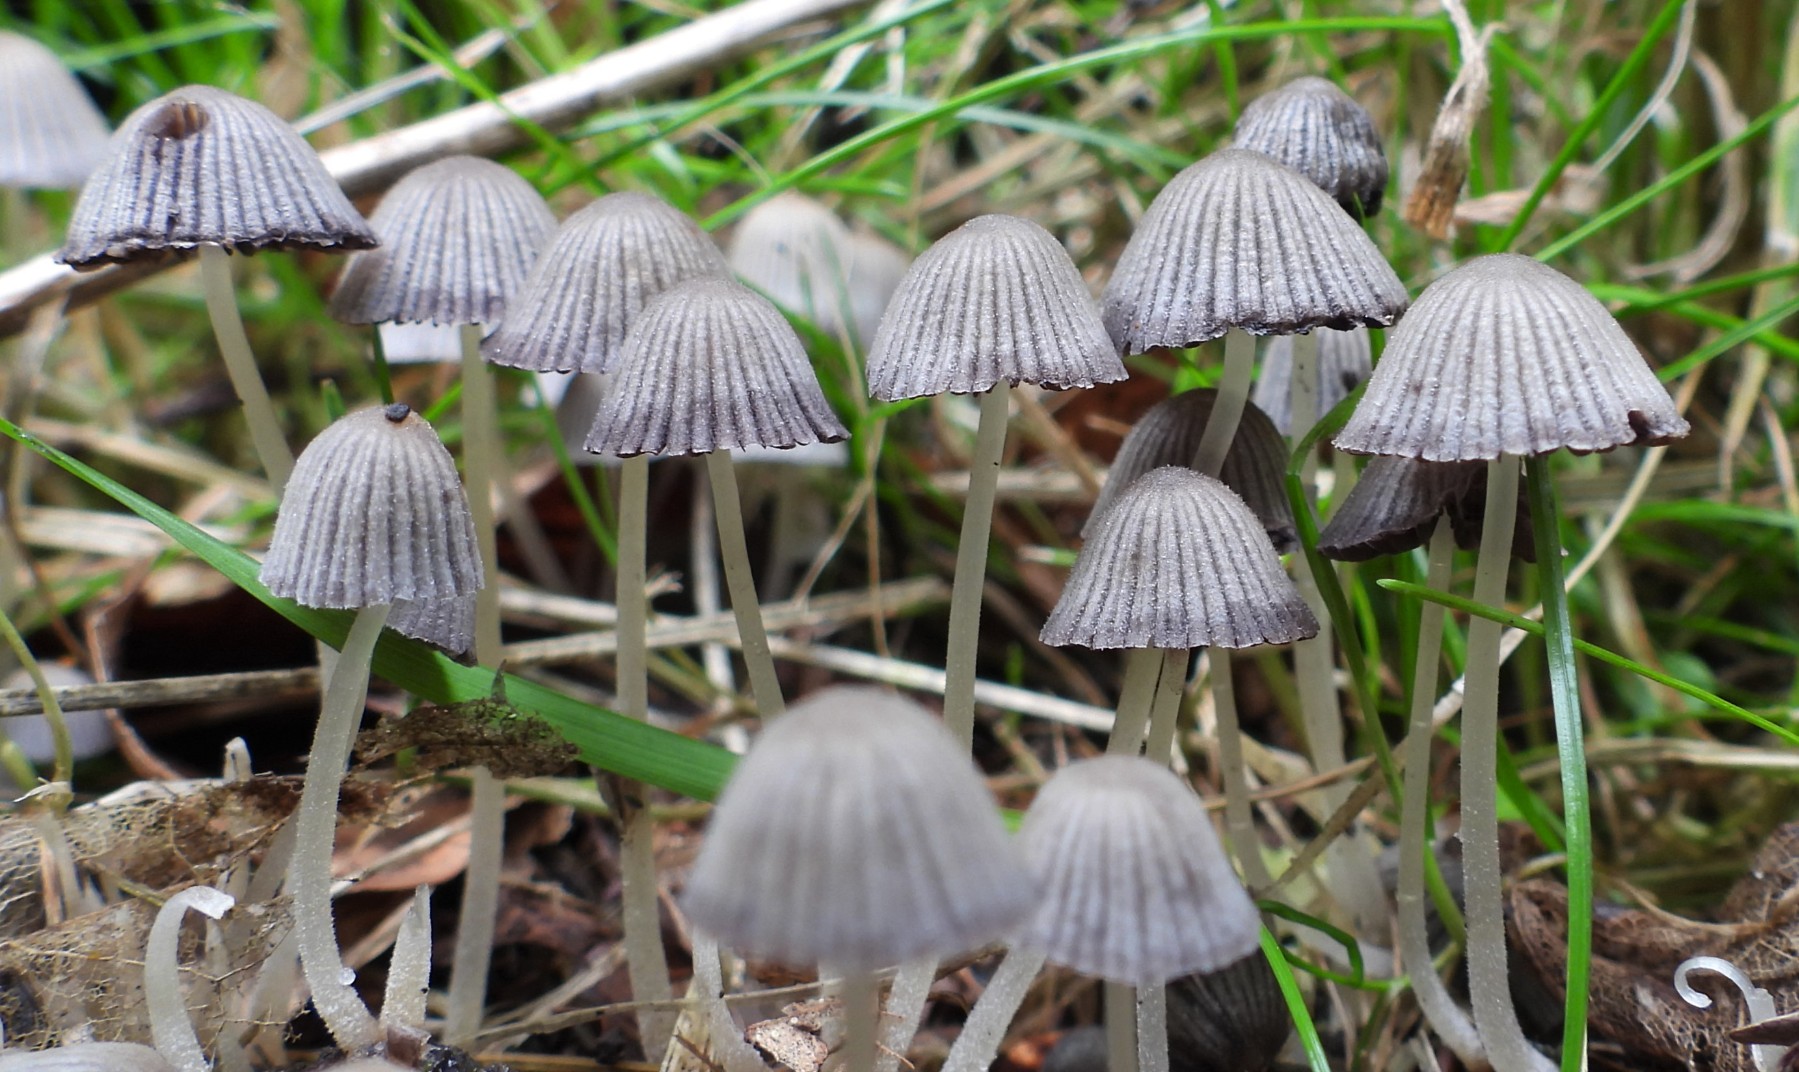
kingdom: Fungi
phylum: Basidiomycota
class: Agaricomycetes
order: Agaricales
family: Psathyrellaceae
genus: Coprinellus
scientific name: Coprinellus disseminatus
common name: bredsået blækhat
